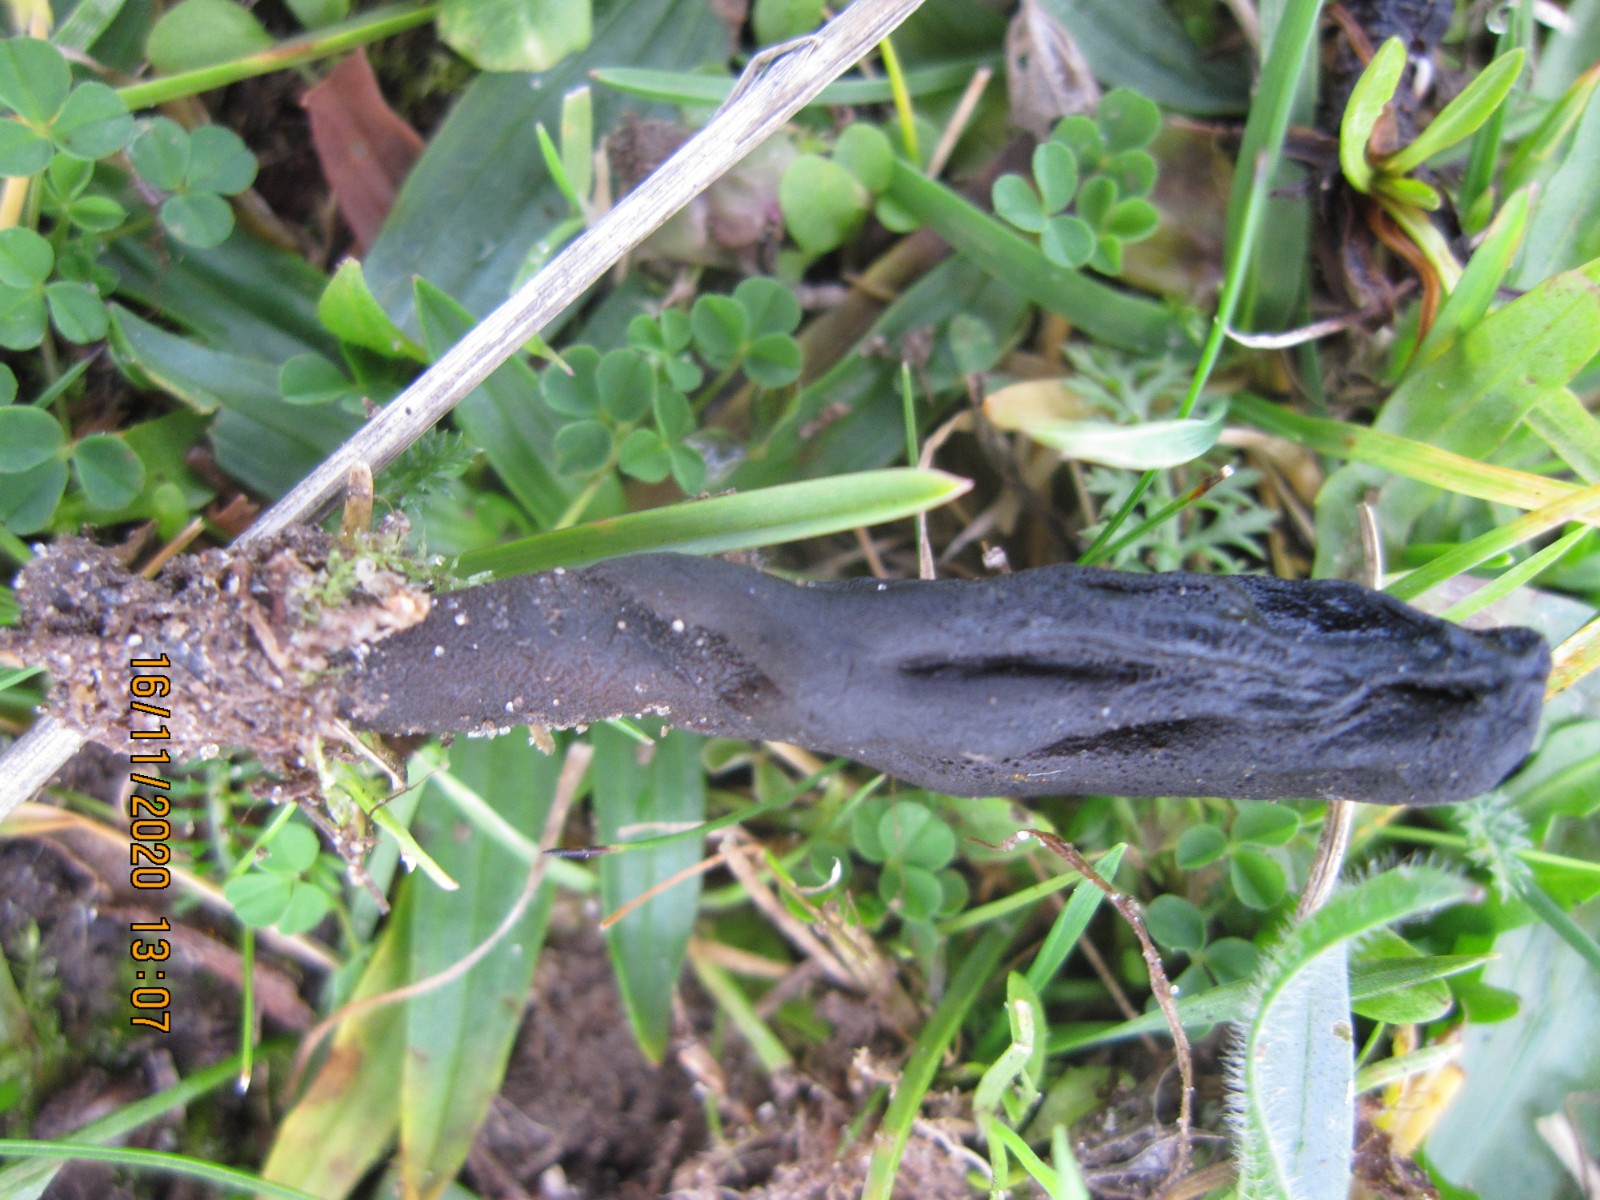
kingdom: Fungi
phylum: Ascomycota
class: Geoglossomycetes
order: Geoglossales
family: Geoglossaceae
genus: Geoglossum
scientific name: Geoglossum fallax
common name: småskællet jordtunge
